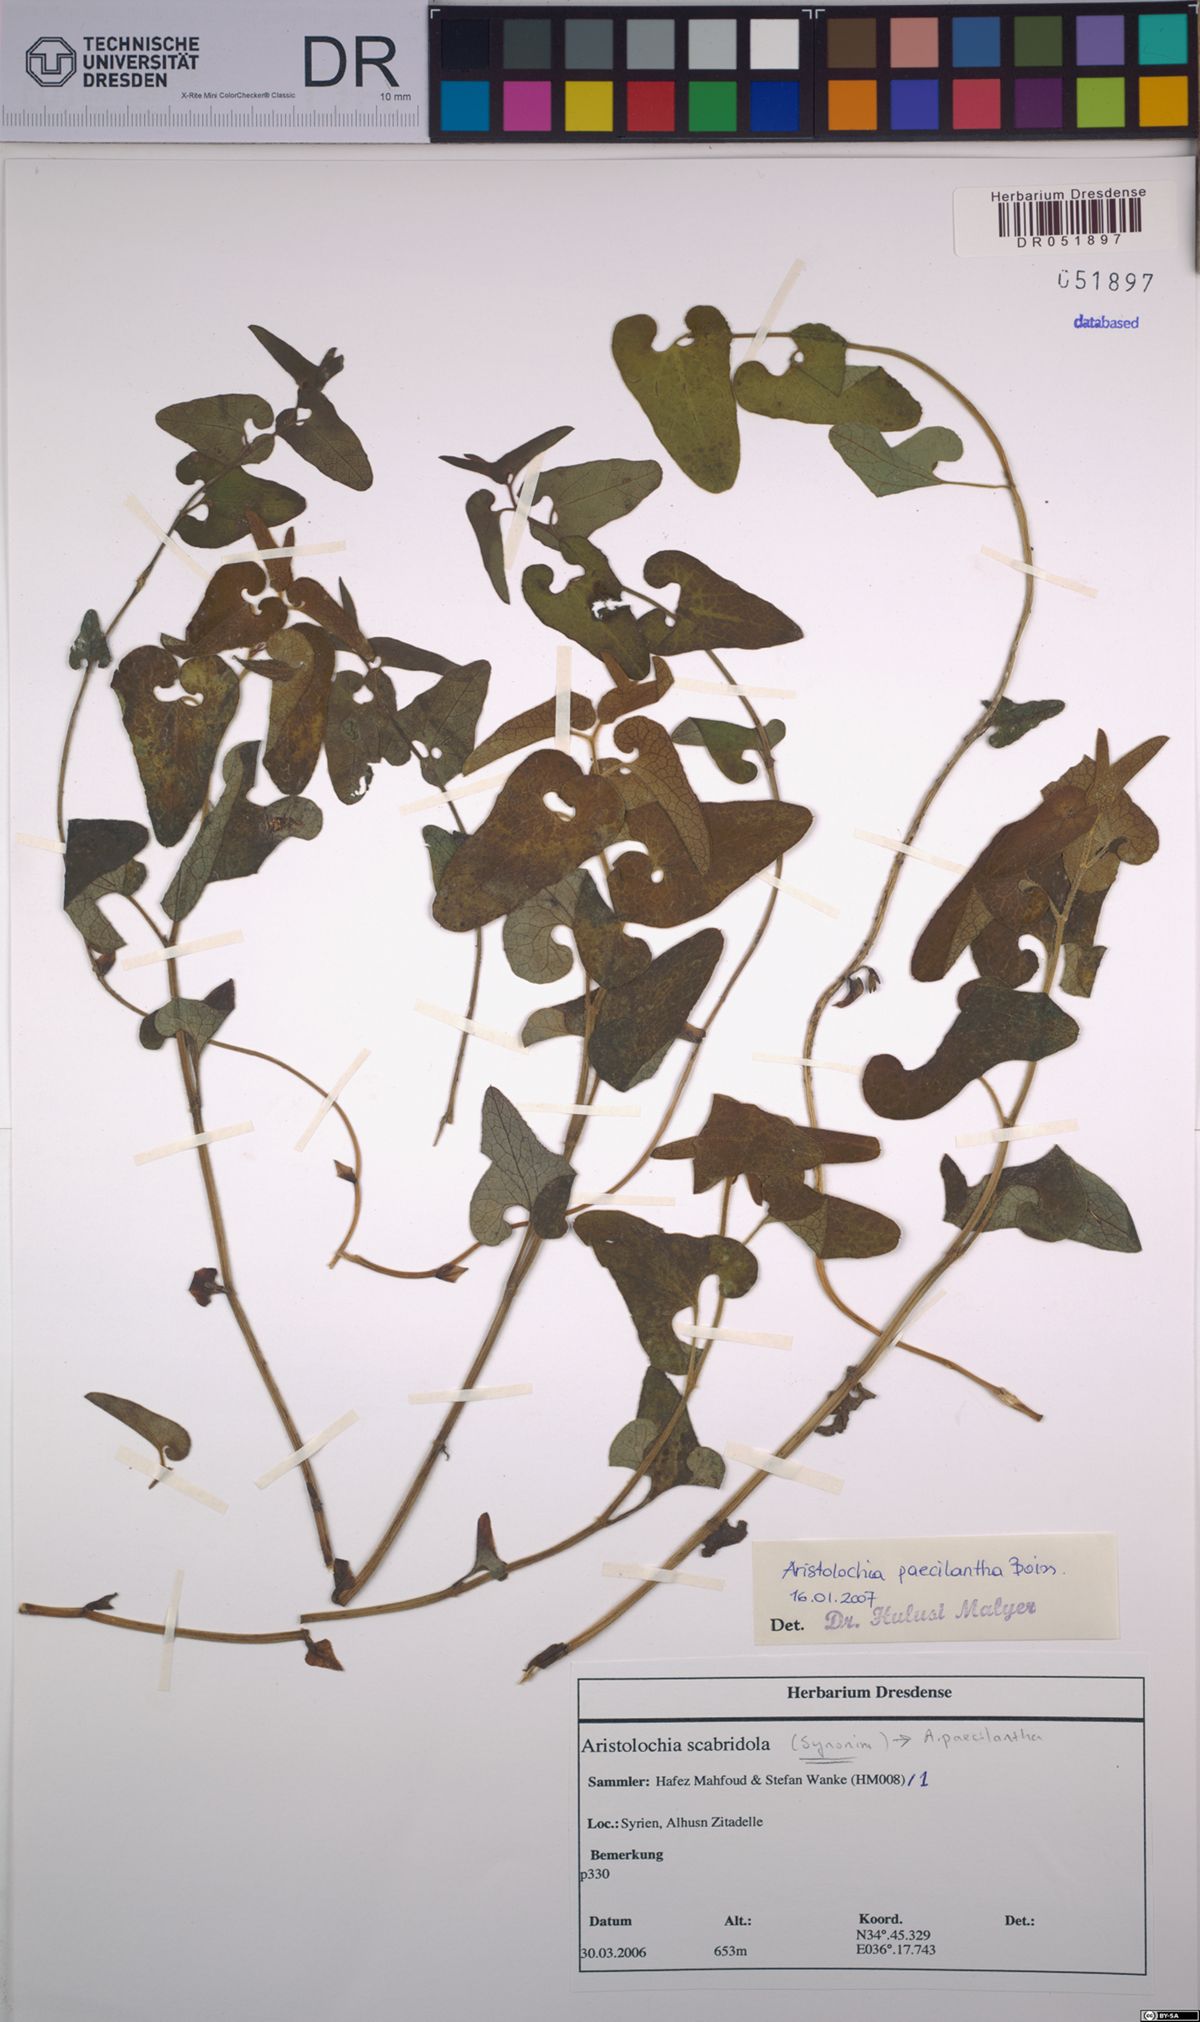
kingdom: Plantae
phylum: Tracheophyta
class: Magnoliopsida
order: Piperales
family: Aristolochiaceae
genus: Aristolochia
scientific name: Aristolochia paecilantha
